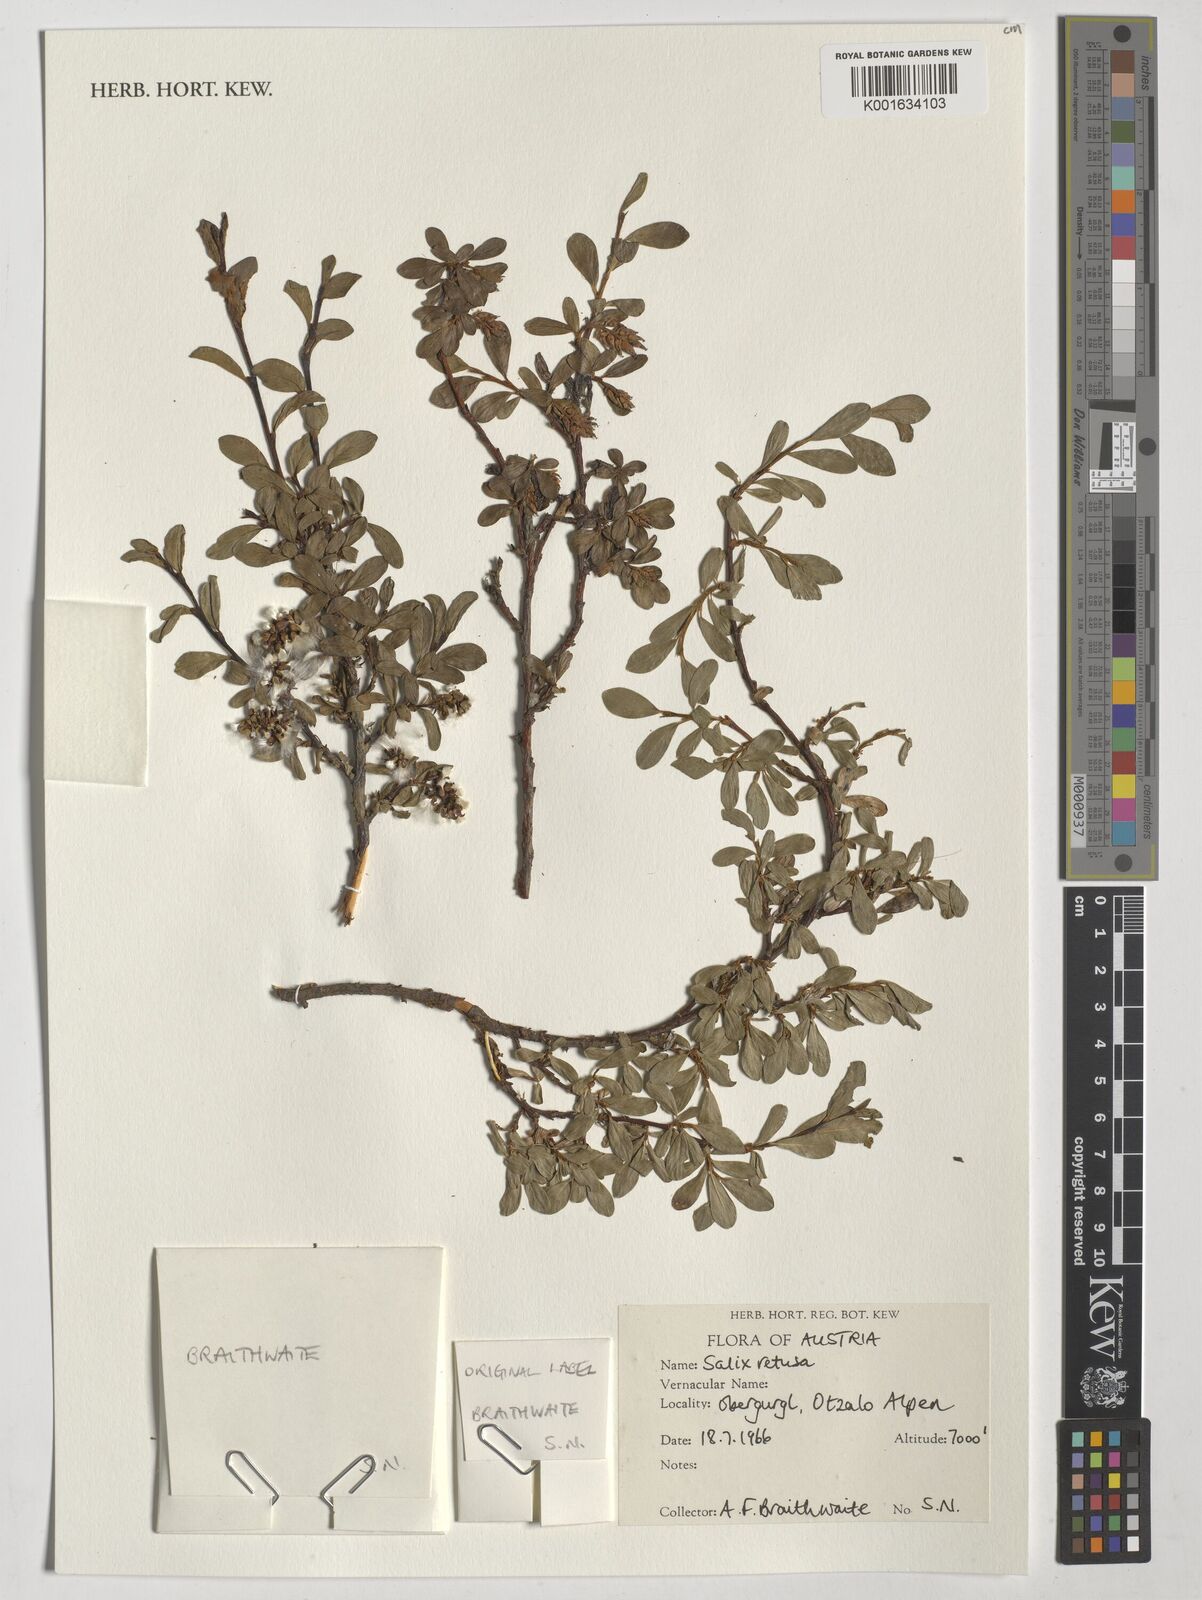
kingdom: Plantae
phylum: Tracheophyta
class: Magnoliopsida
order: Malpighiales
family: Salicaceae
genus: Salix
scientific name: Salix retusa
